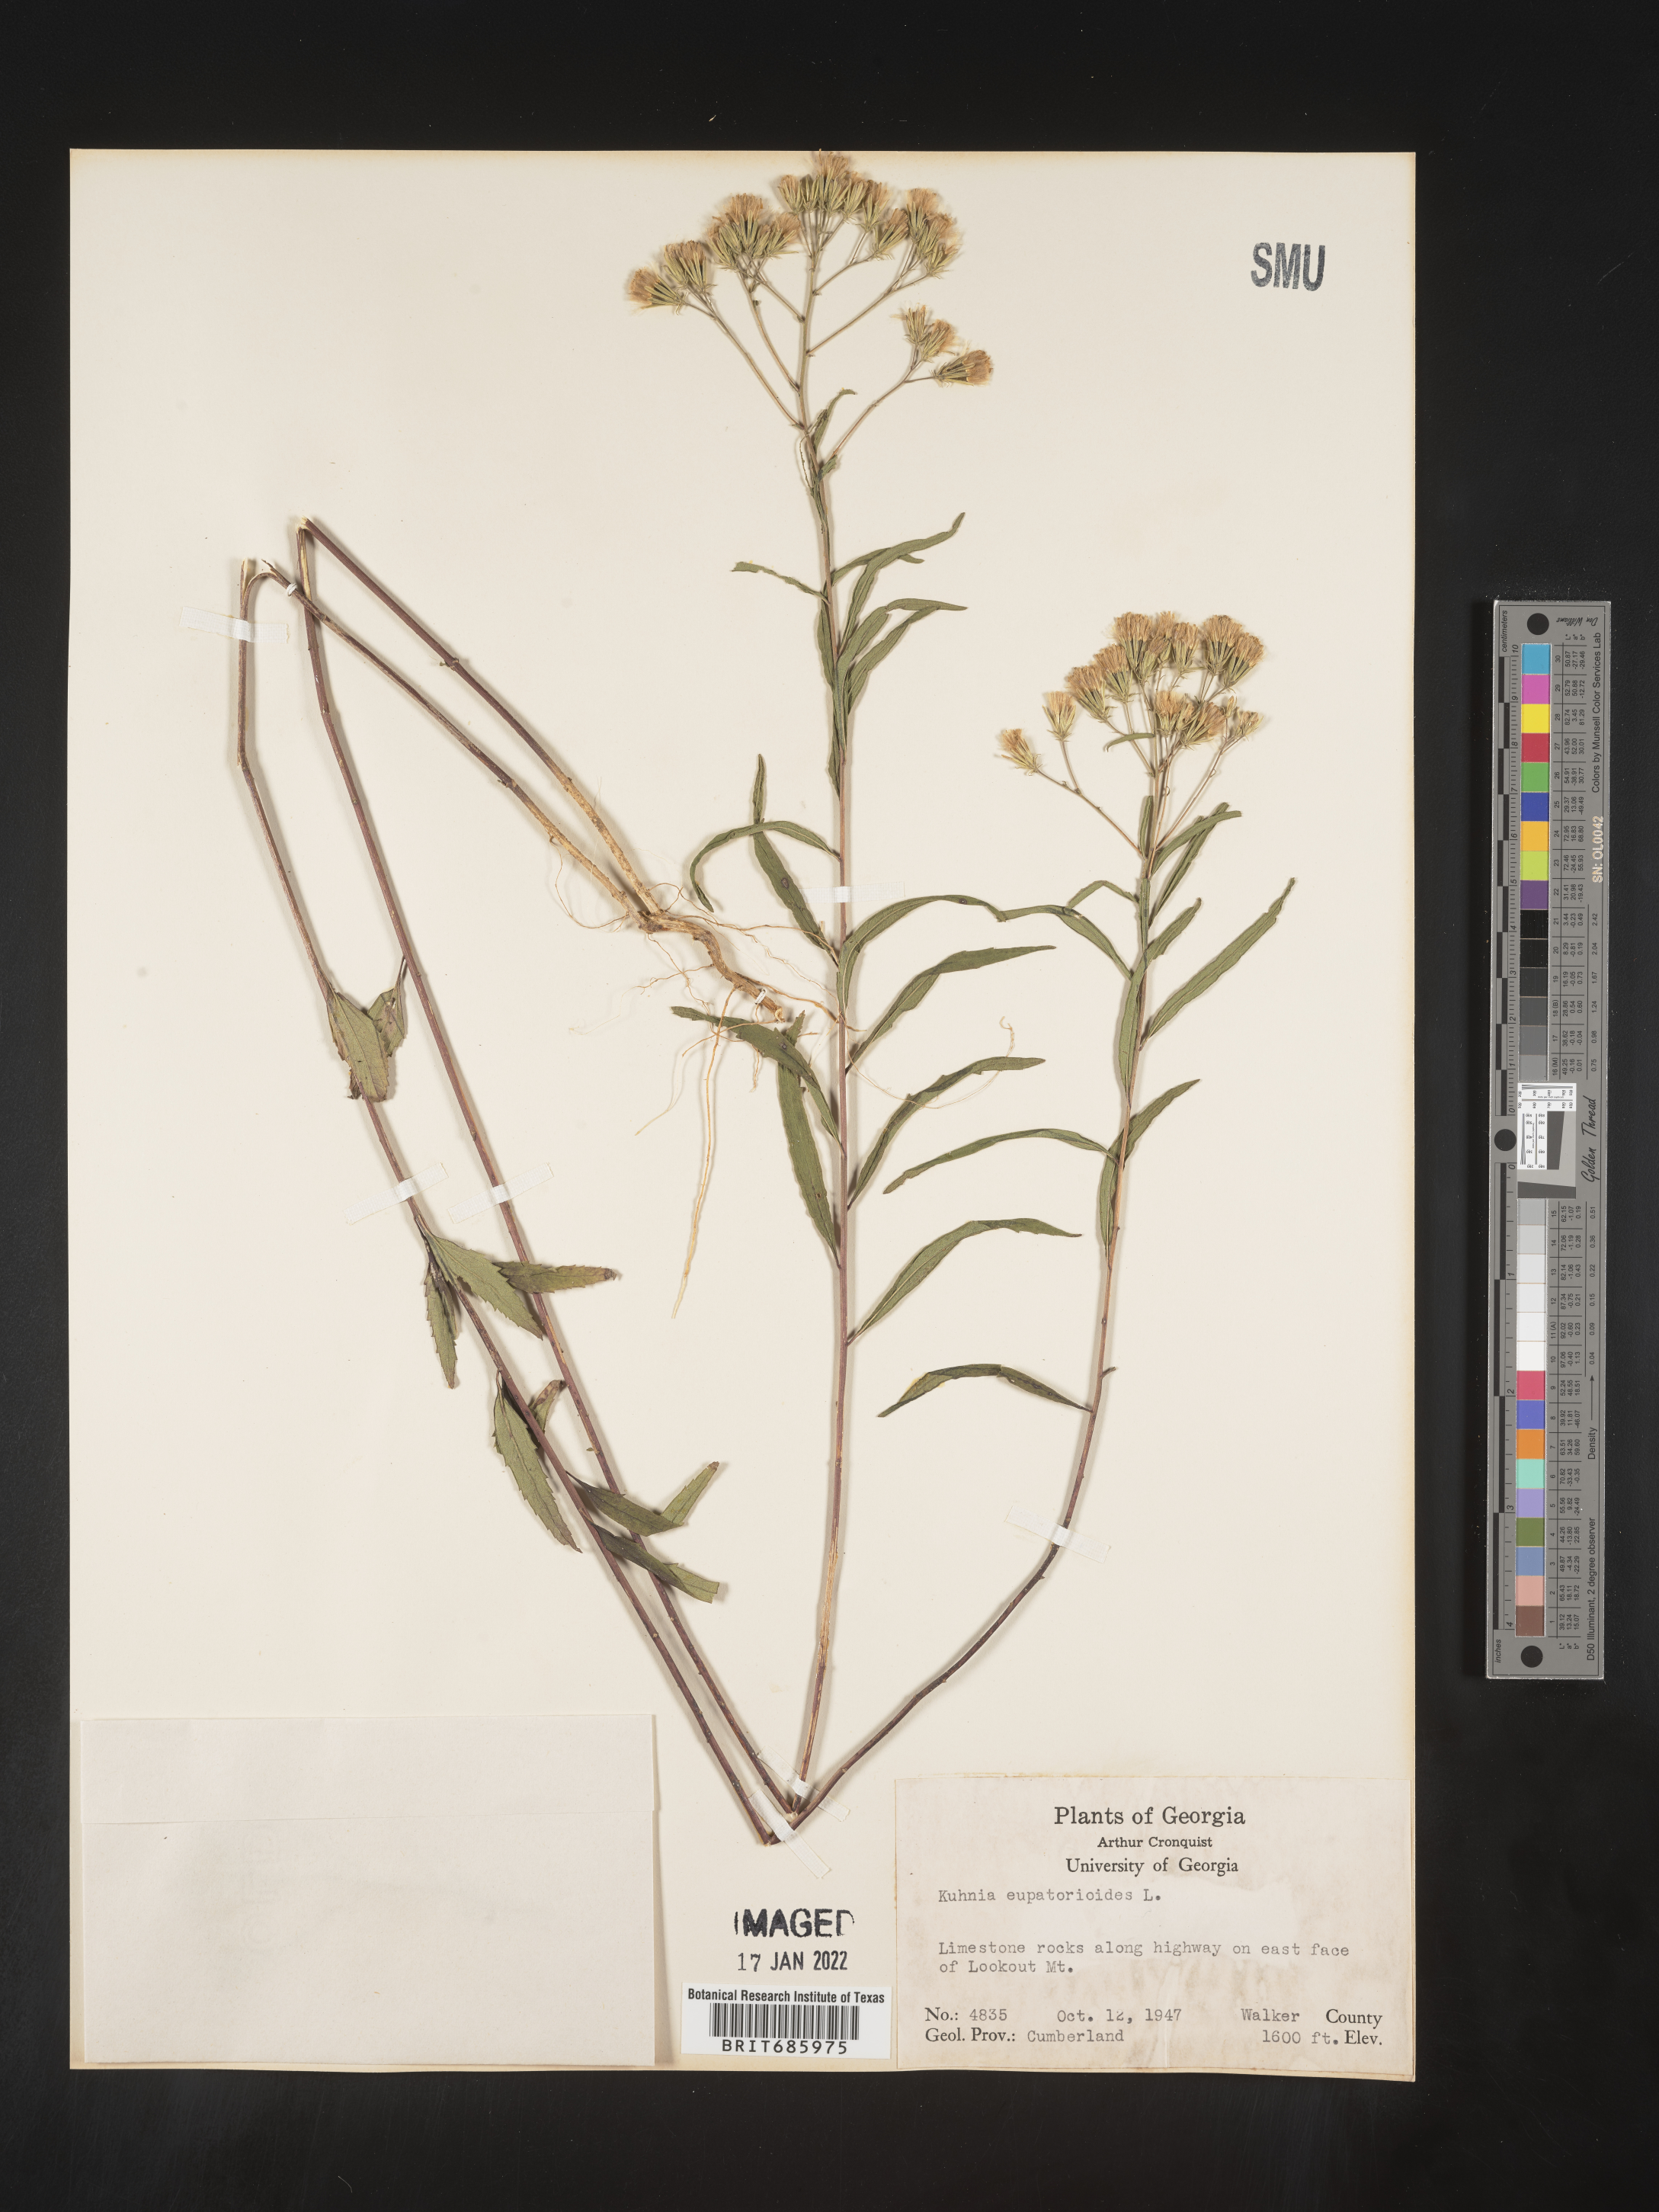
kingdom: Plantae
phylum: Tracheophyta
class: Magnoliopsida
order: Asterales
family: Asteraceae
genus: Brickellia
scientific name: Brickellia eupatorioides
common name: False boneset
